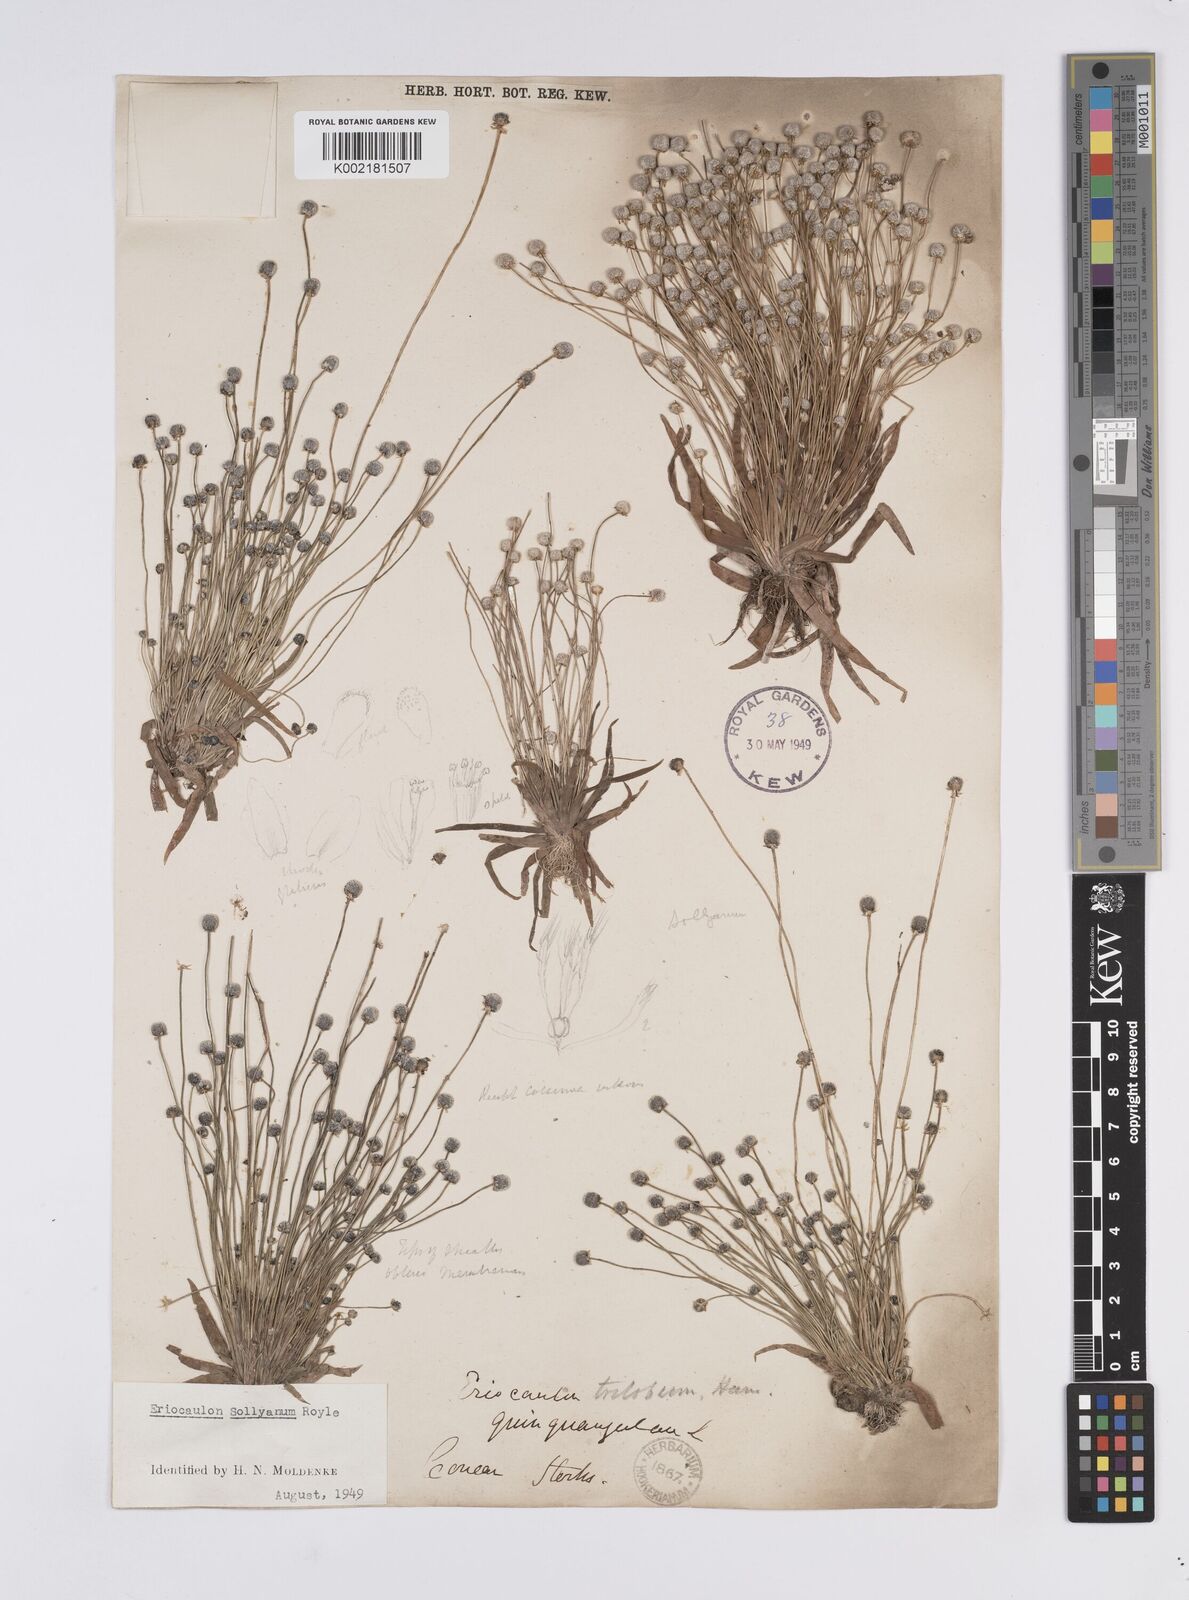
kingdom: Plantae
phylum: Tracheophyta
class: Liliopsida
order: Poales
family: Eriocaulaceae
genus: Eriocaulon
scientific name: Eriocaulon sollyanum
